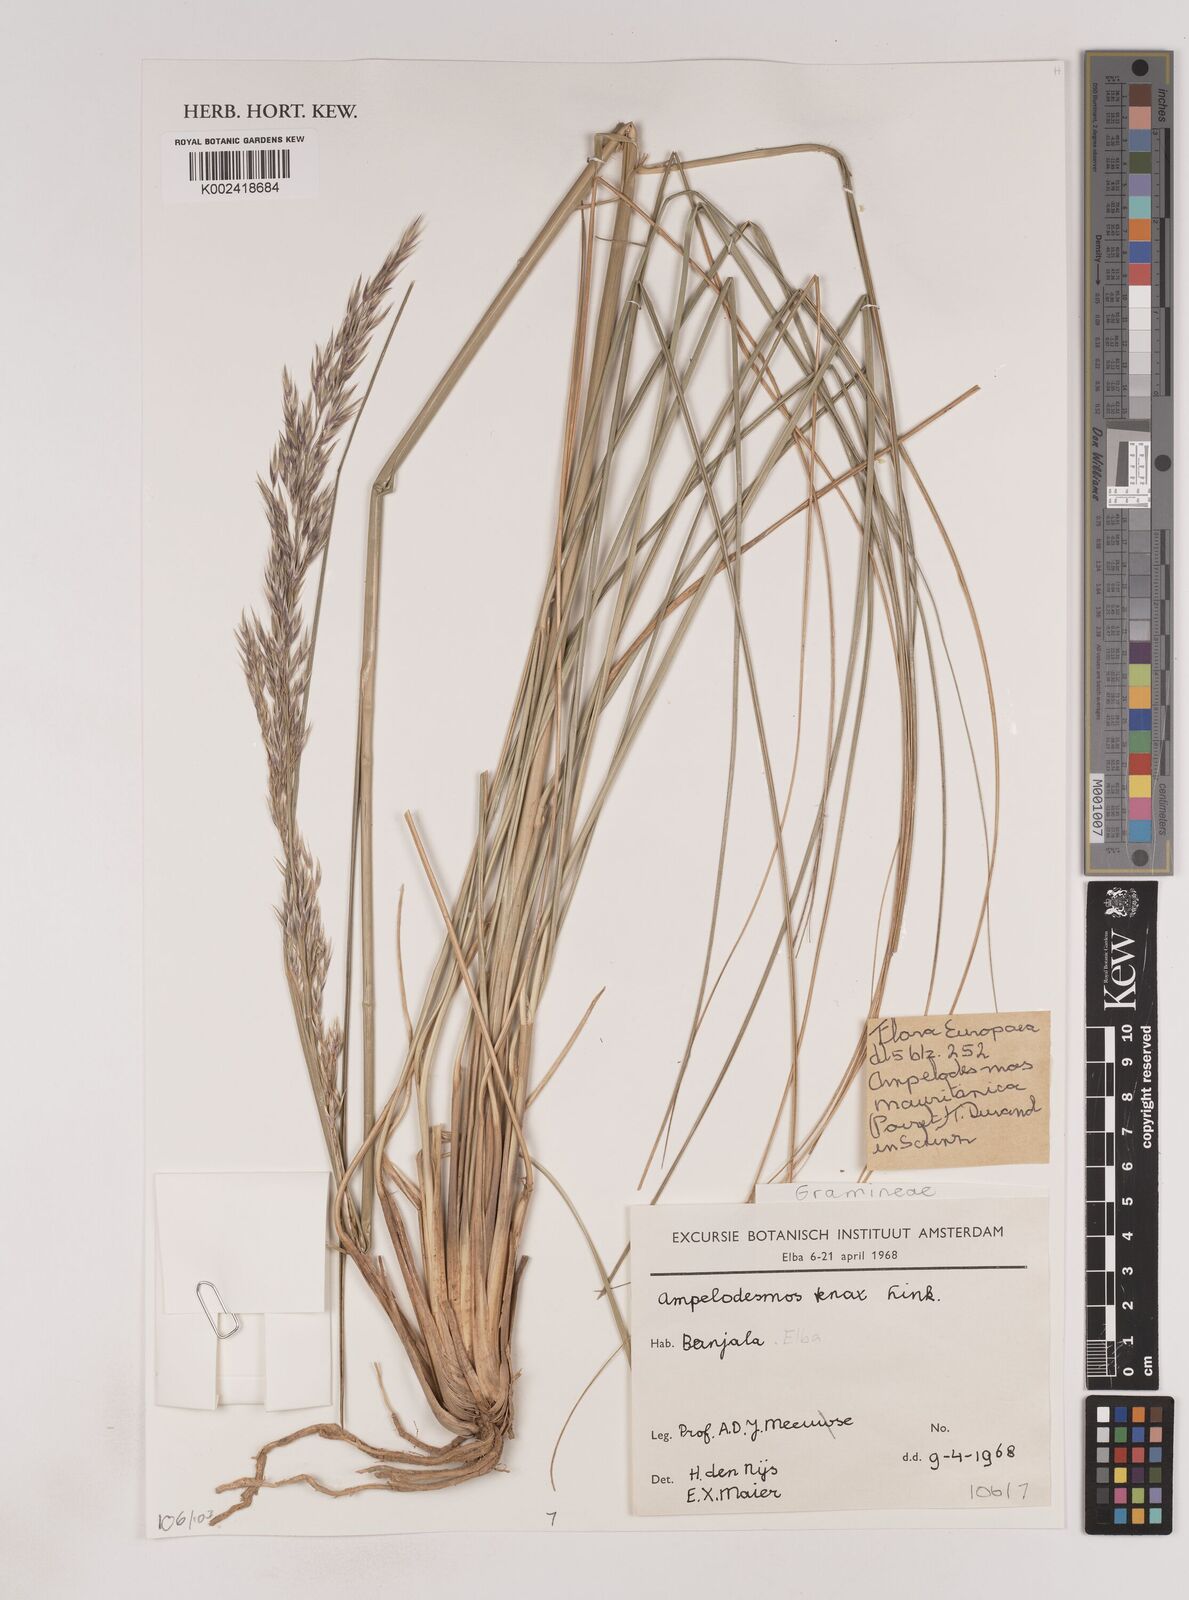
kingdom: Plantae
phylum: Tracheophyta
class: Liliopsida
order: Poales
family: Poaceae
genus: Ampelodesmos
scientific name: Ampelodesmos mauritanicus
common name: Mauritanian grass
